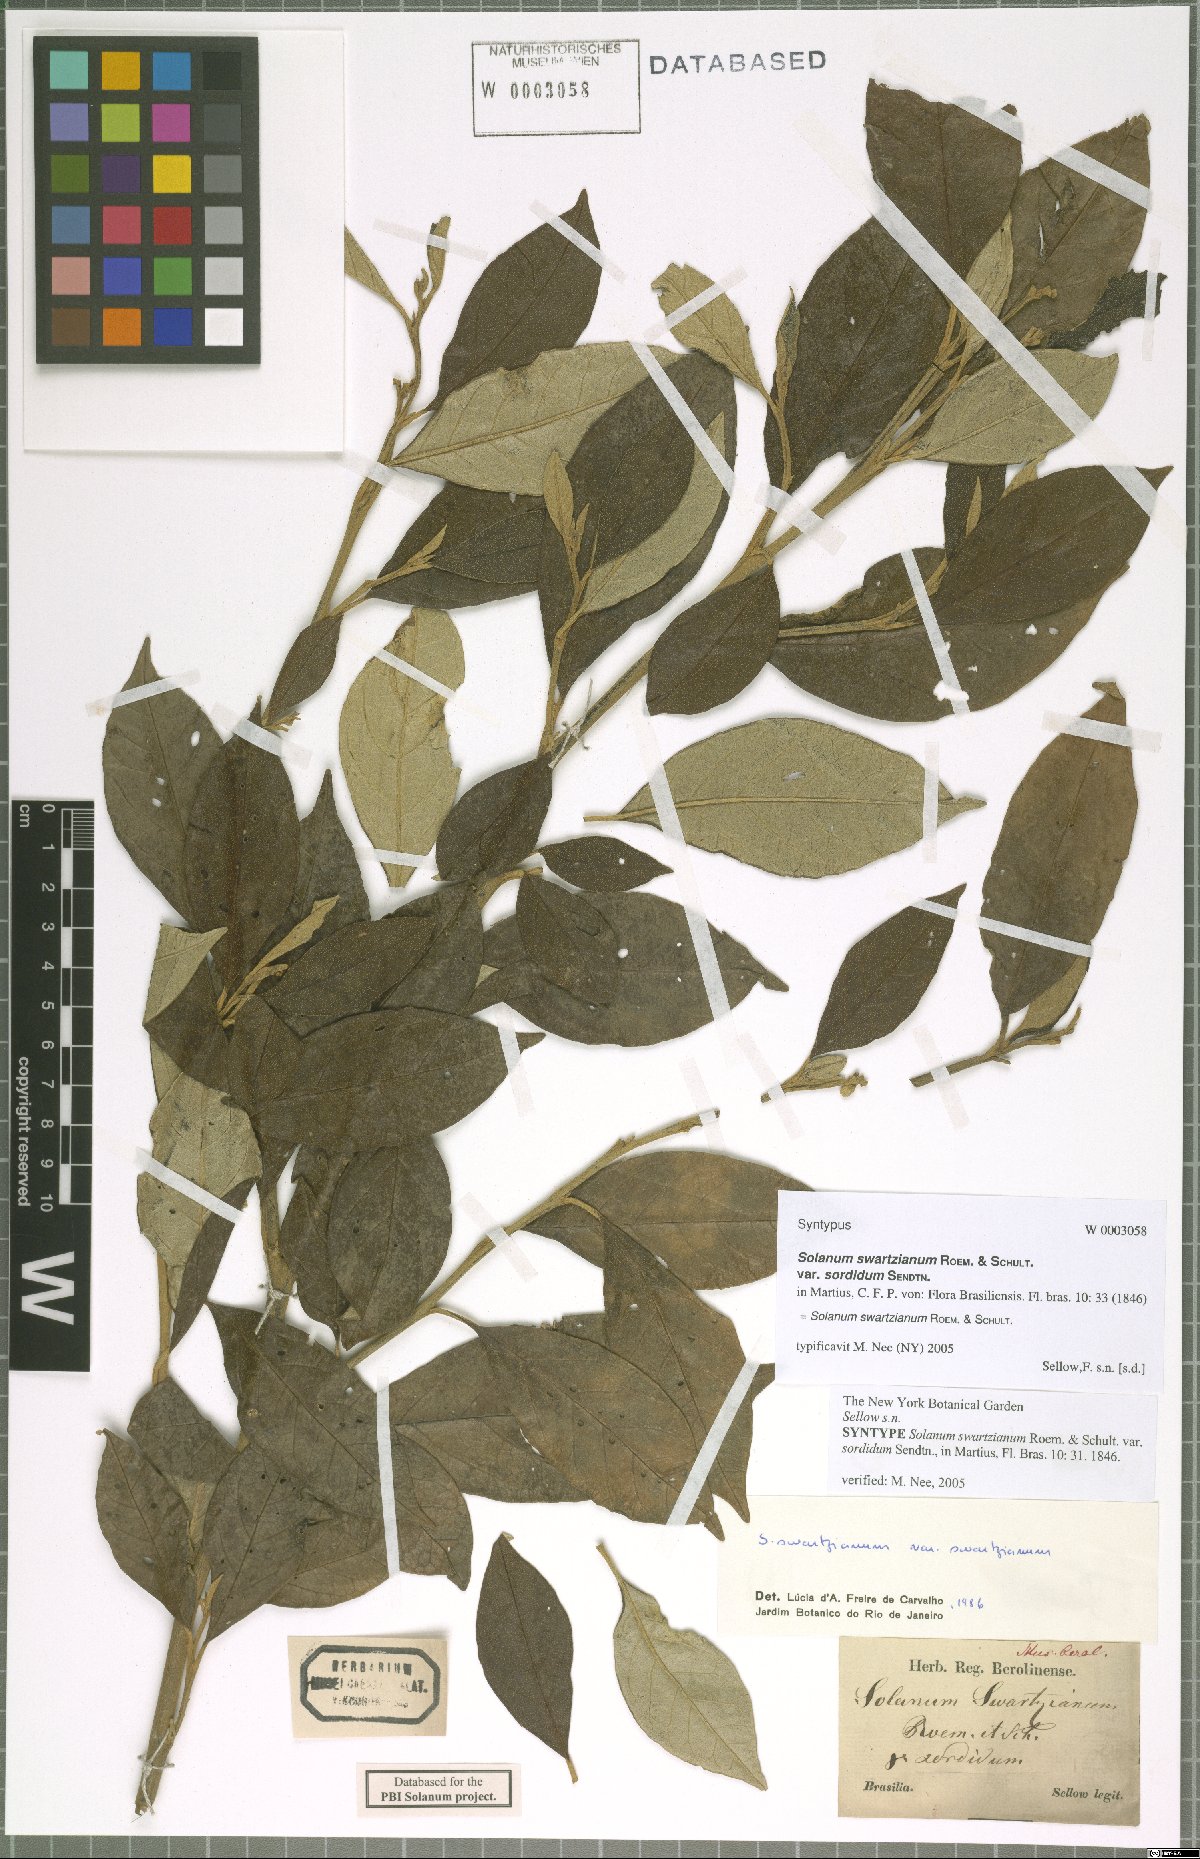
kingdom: Plantae
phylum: Tracheophyta
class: Magnoliopsida
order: Solanales
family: Solanaceae
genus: Solanum
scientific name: Solanum swartzianum
